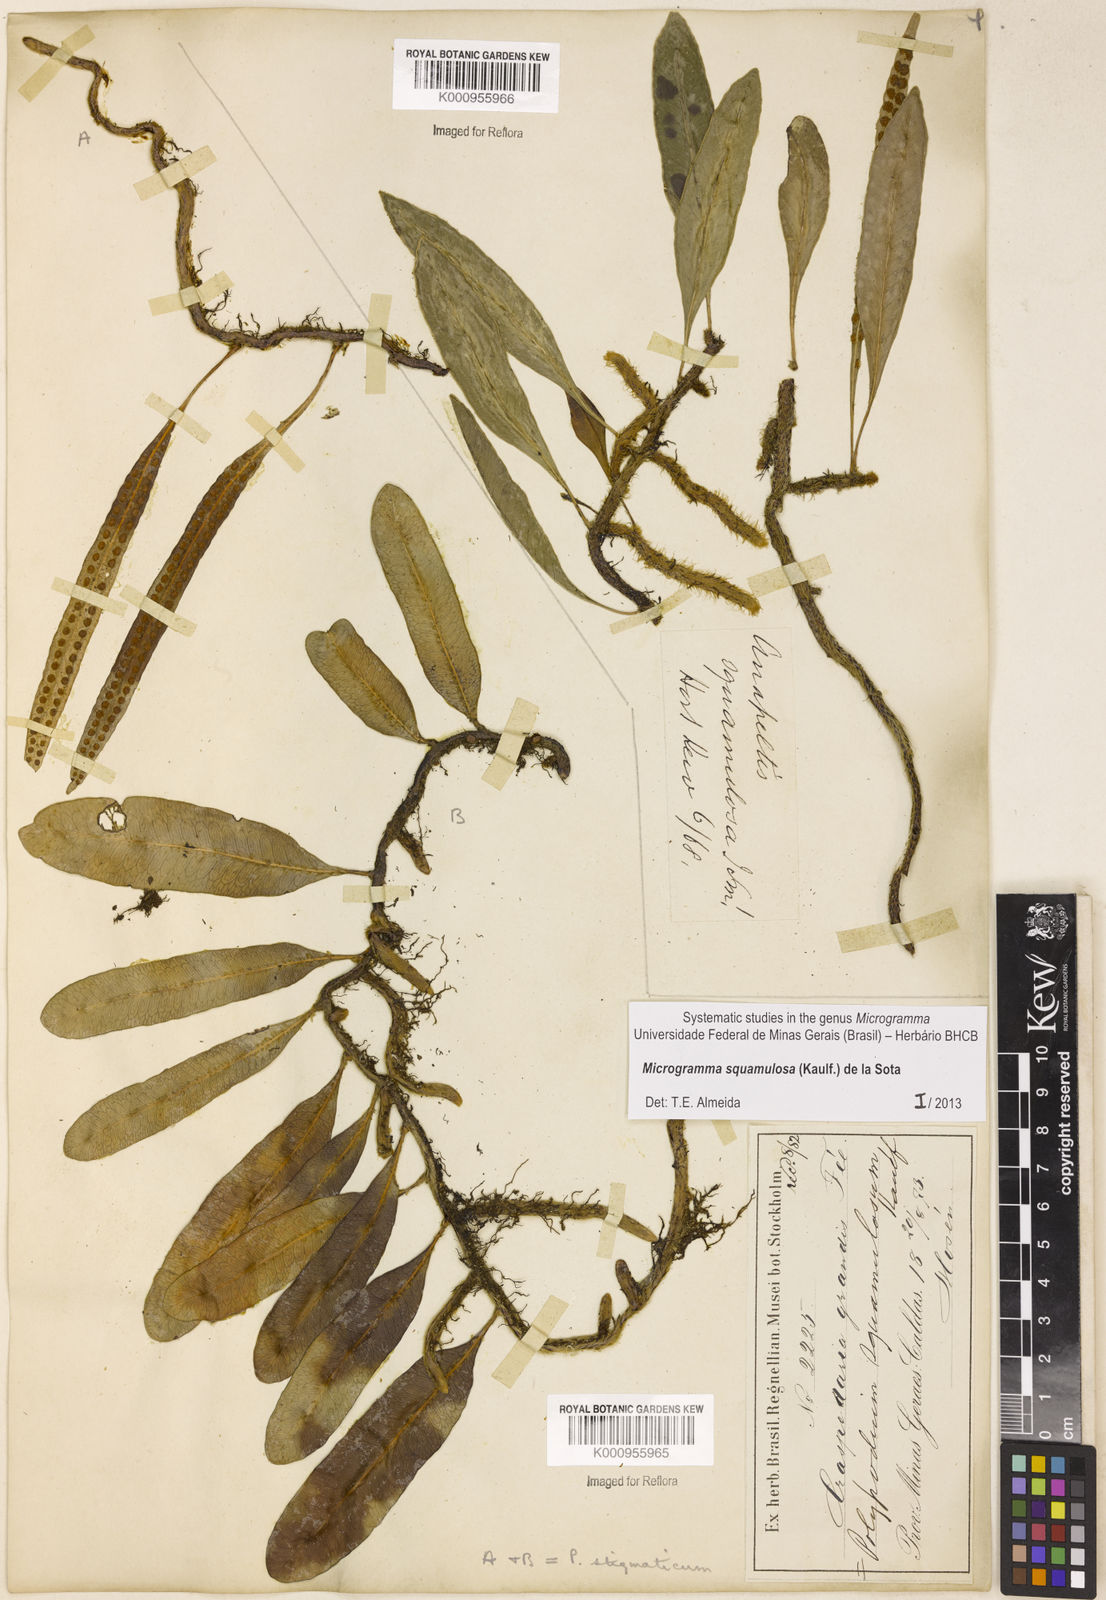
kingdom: Plantae
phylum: Tracheophyta
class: Polypodiopsida
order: Polypodiales
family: Polypodiaceae
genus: Microgramma
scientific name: Microgramma squamulosa
